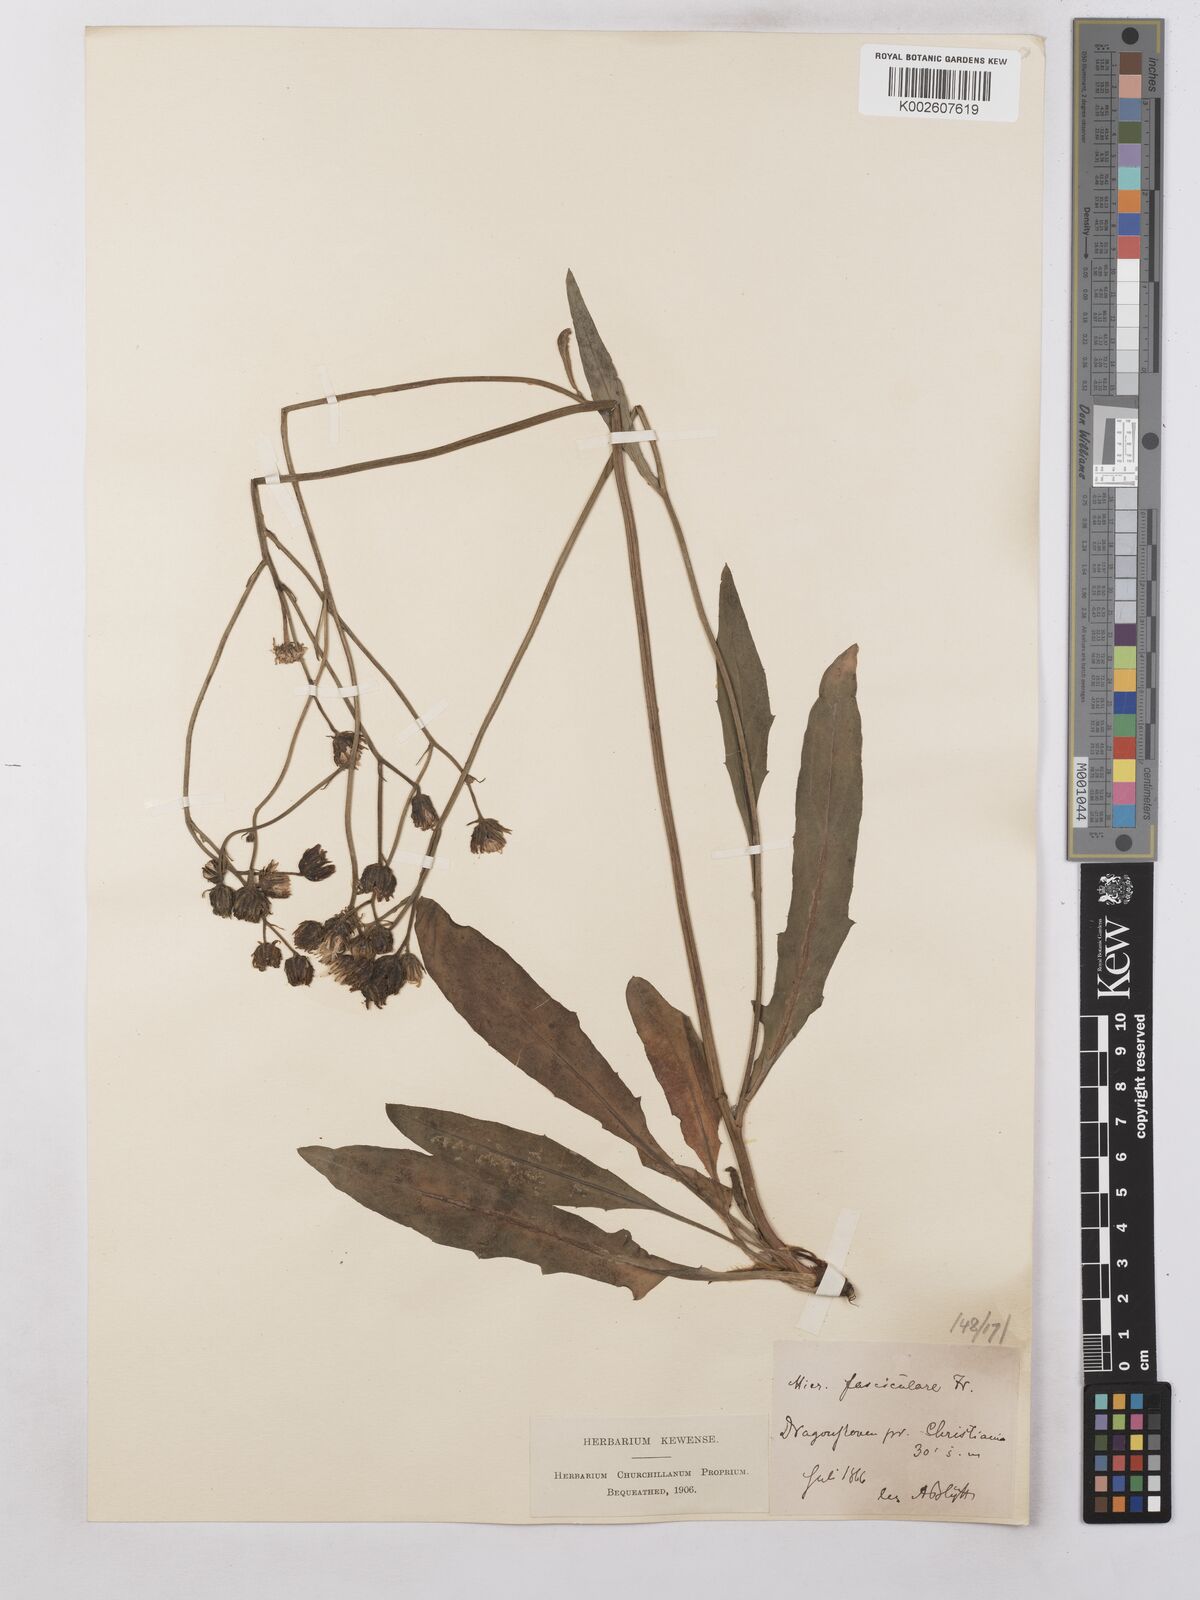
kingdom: Plantae
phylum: Tracheophyta
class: Magnoliopsida
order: Asterales
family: Asteraceae
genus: Hieracium
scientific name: Hieracium subramosum
